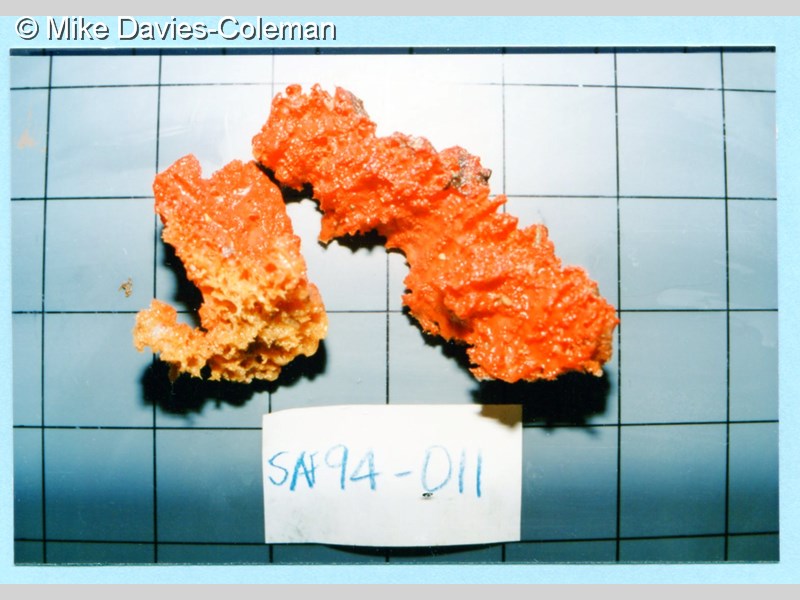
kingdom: Animalia
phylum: Porifera
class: Demospongiae
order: Bubarida
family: Dictyonellidae
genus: Acanthella
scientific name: Acanthella
